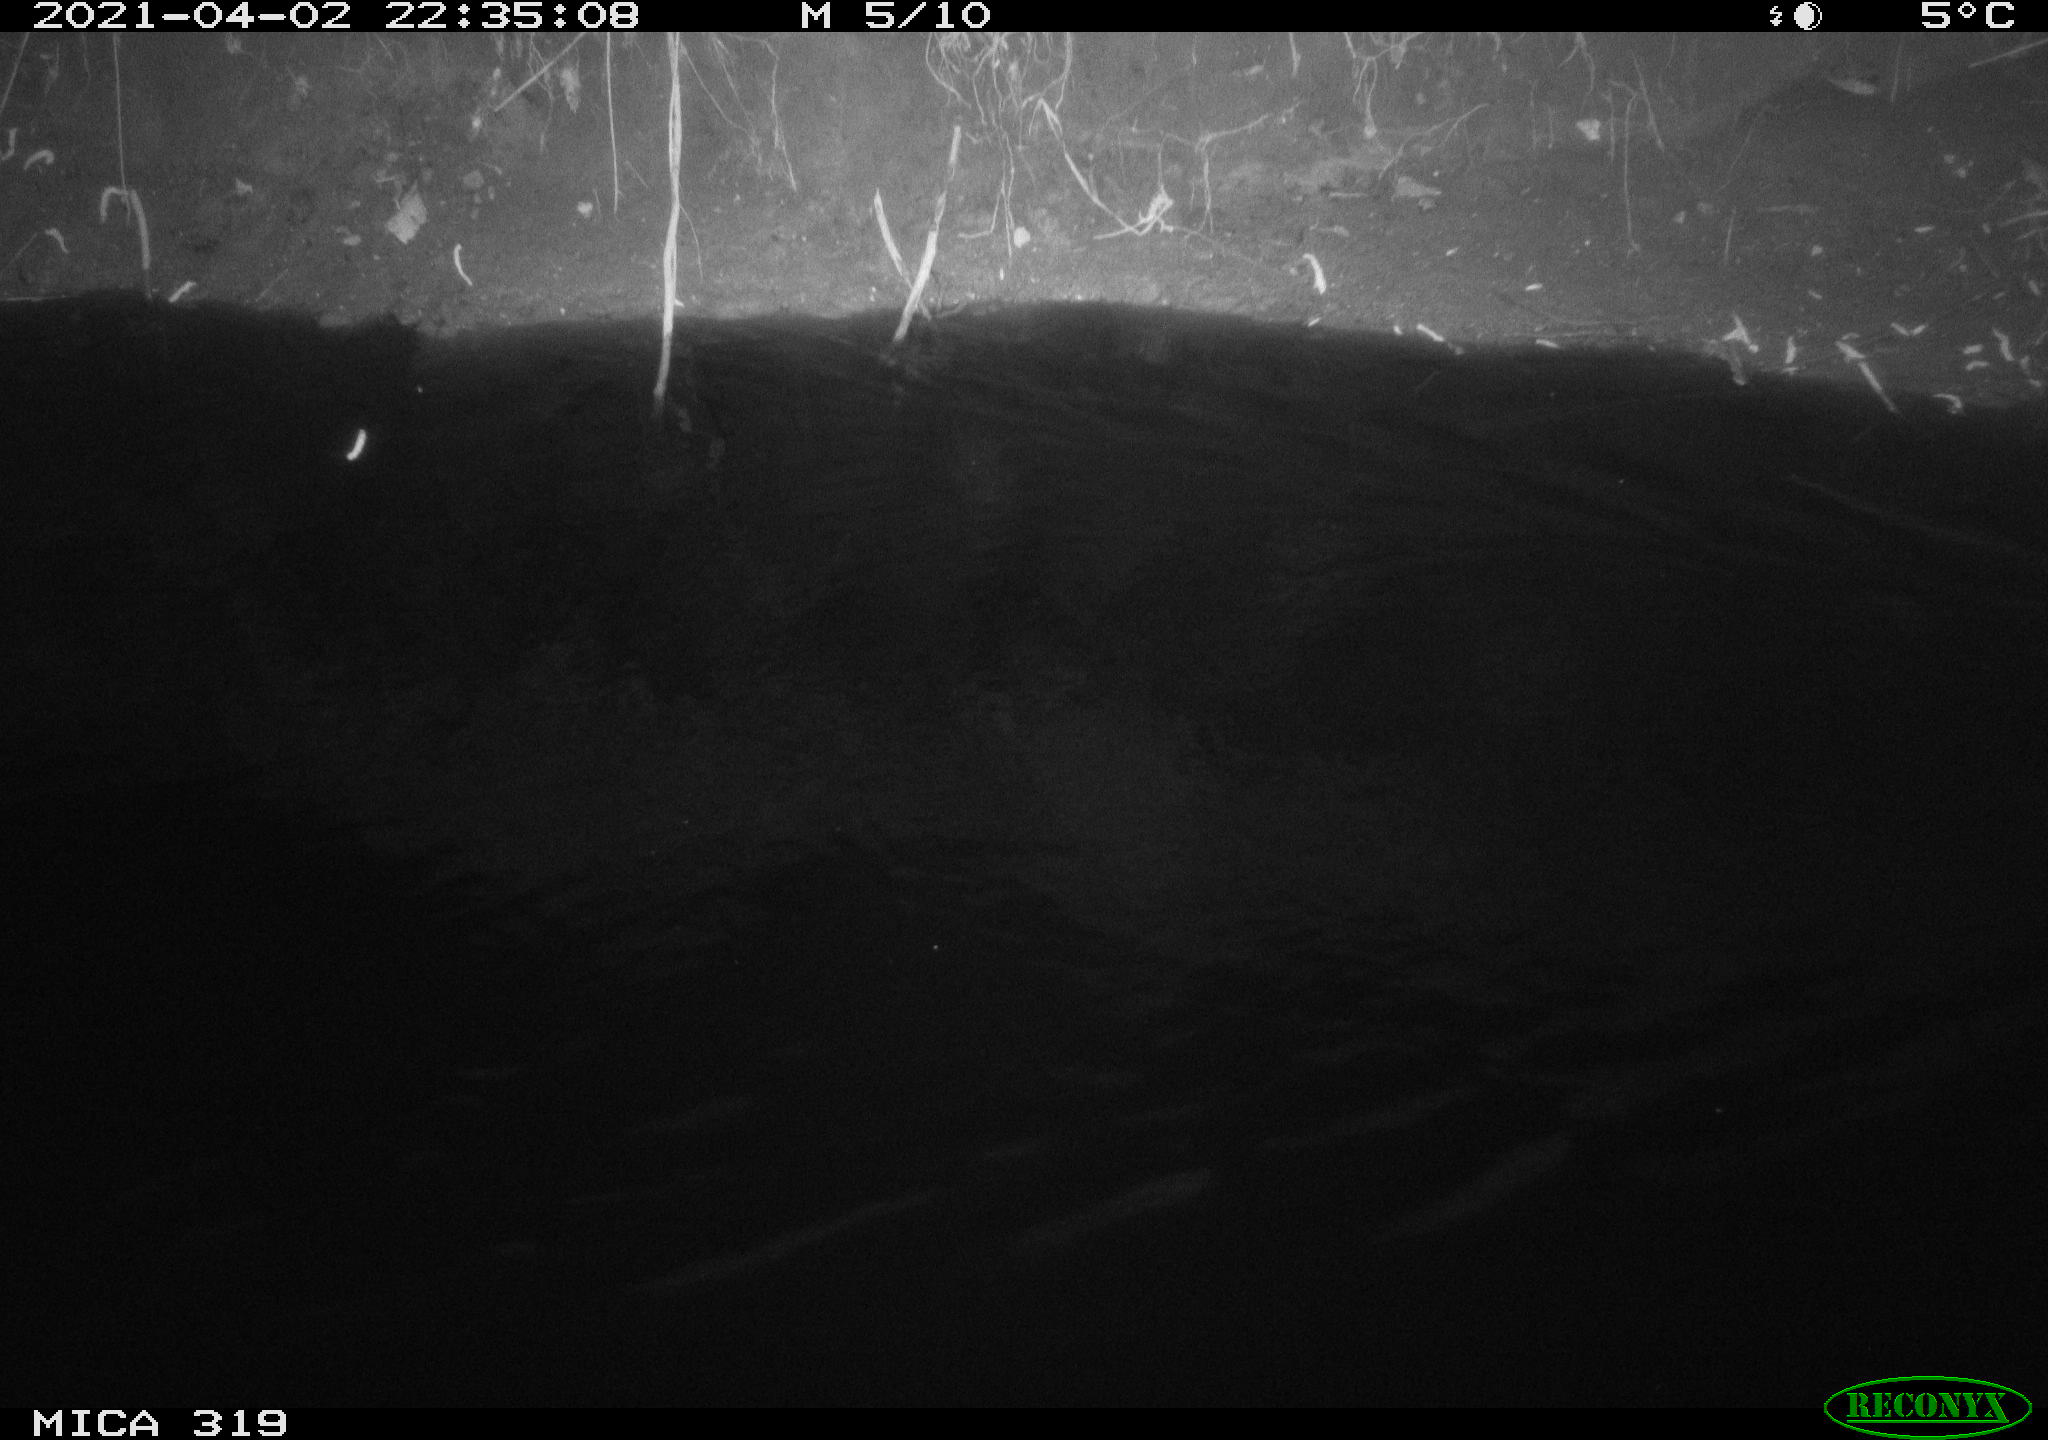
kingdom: Animalia
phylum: Chordata
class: Aves
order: Anseriformes
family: Anatidae
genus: Anas
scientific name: Anas platyrhynchos
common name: Mallard
